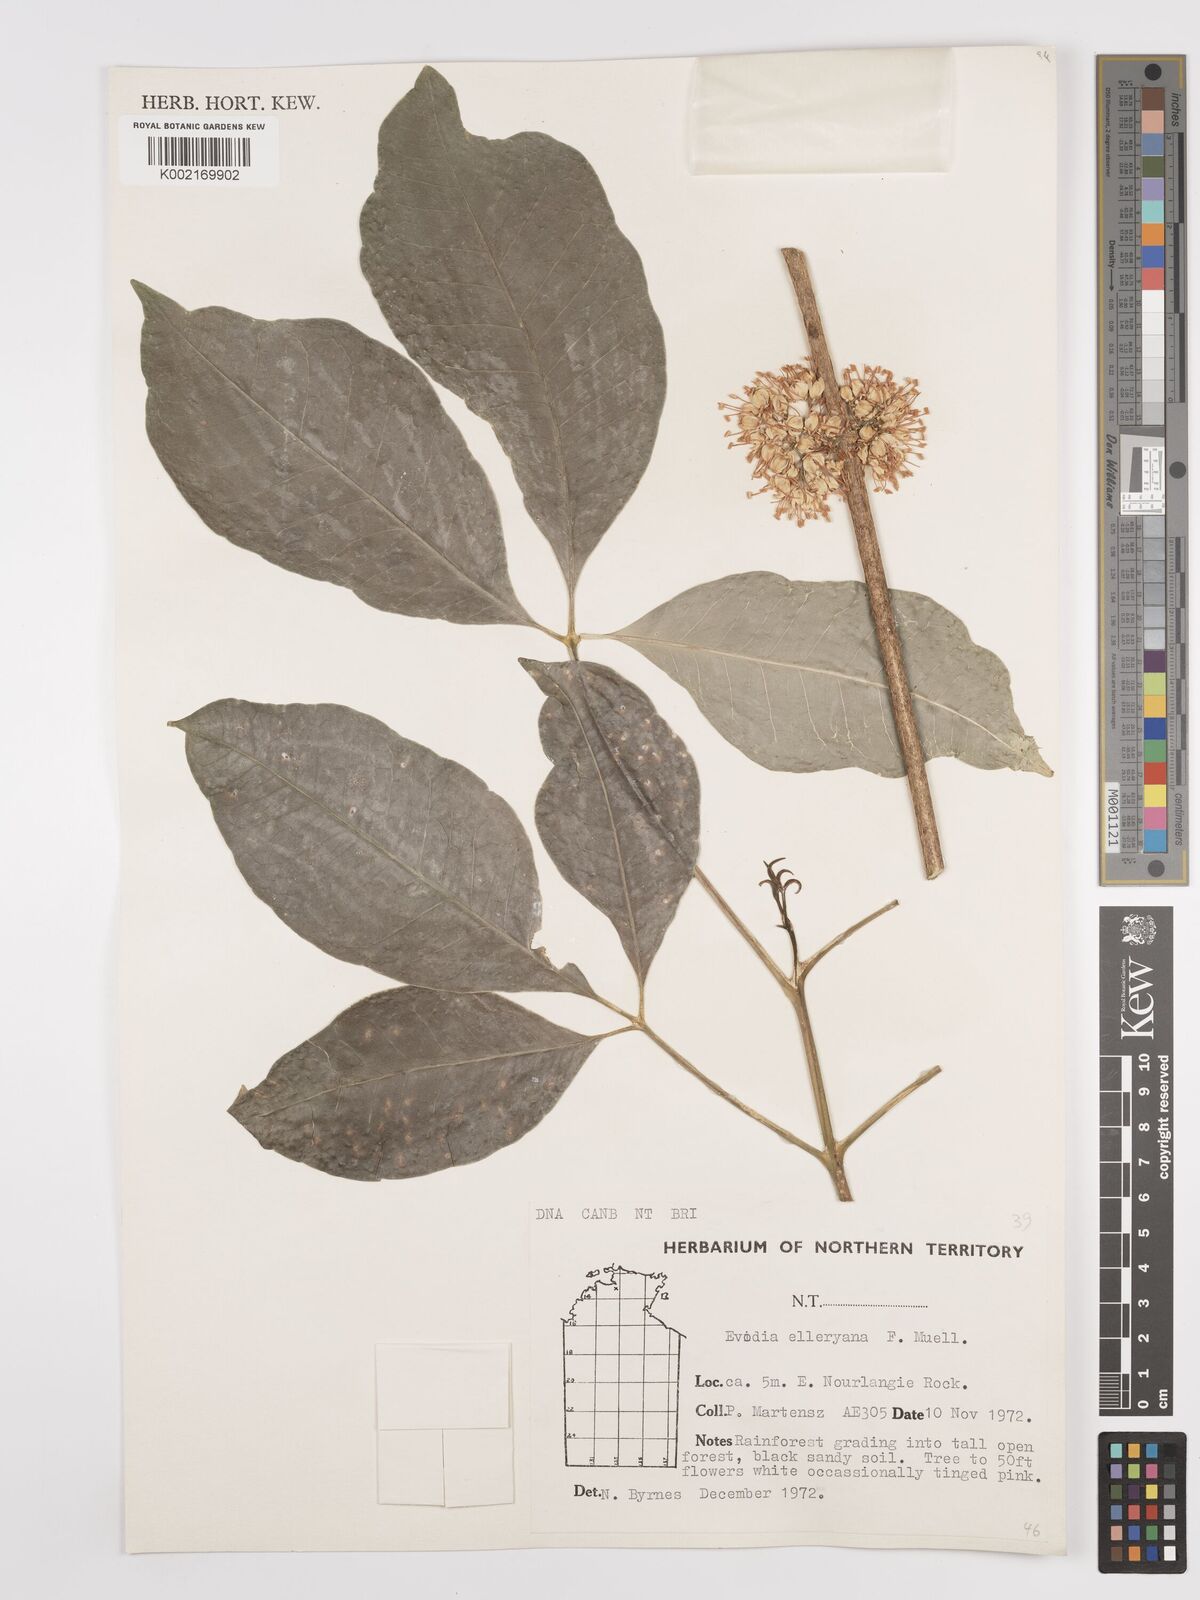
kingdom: Plantae
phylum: Tracheophyta
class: Magnoliopsida
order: Sapindales
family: Rutaceae
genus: Melicope
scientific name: Melicope accedens
